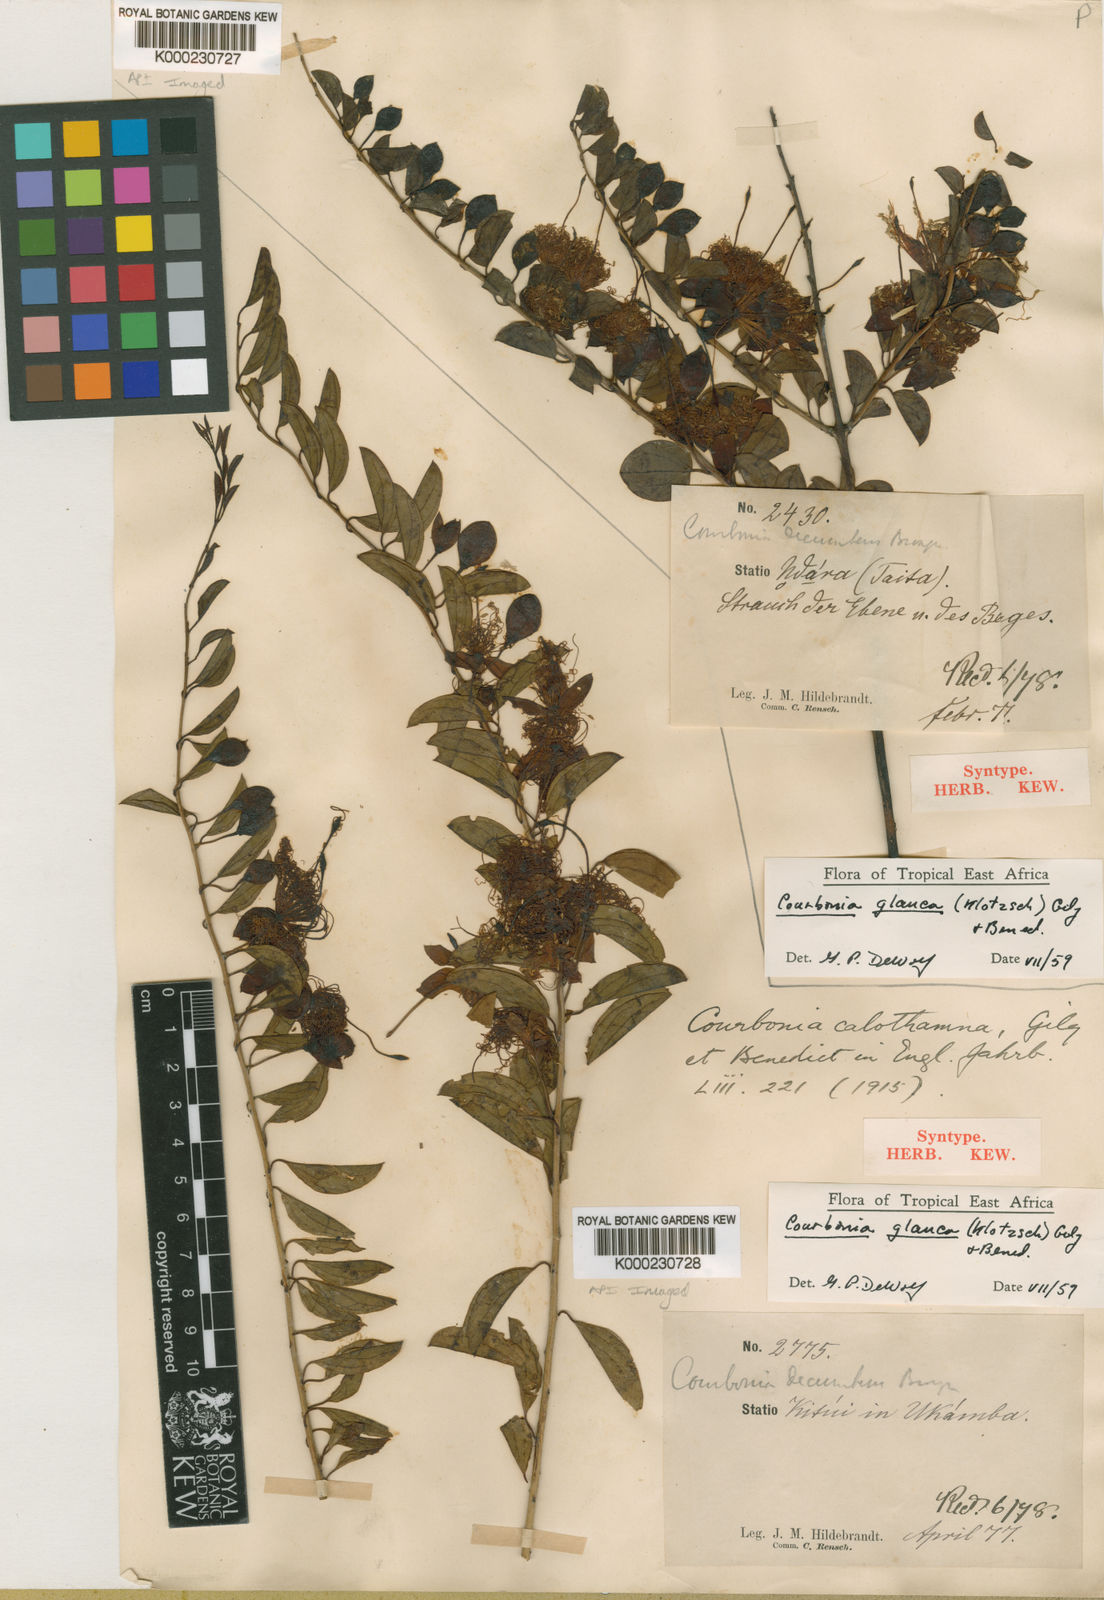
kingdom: Plantae
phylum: Tracheophyta
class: Magnoliopsida
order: Brassicales
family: Capparaceae
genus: Maerua
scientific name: Maerua edulis
